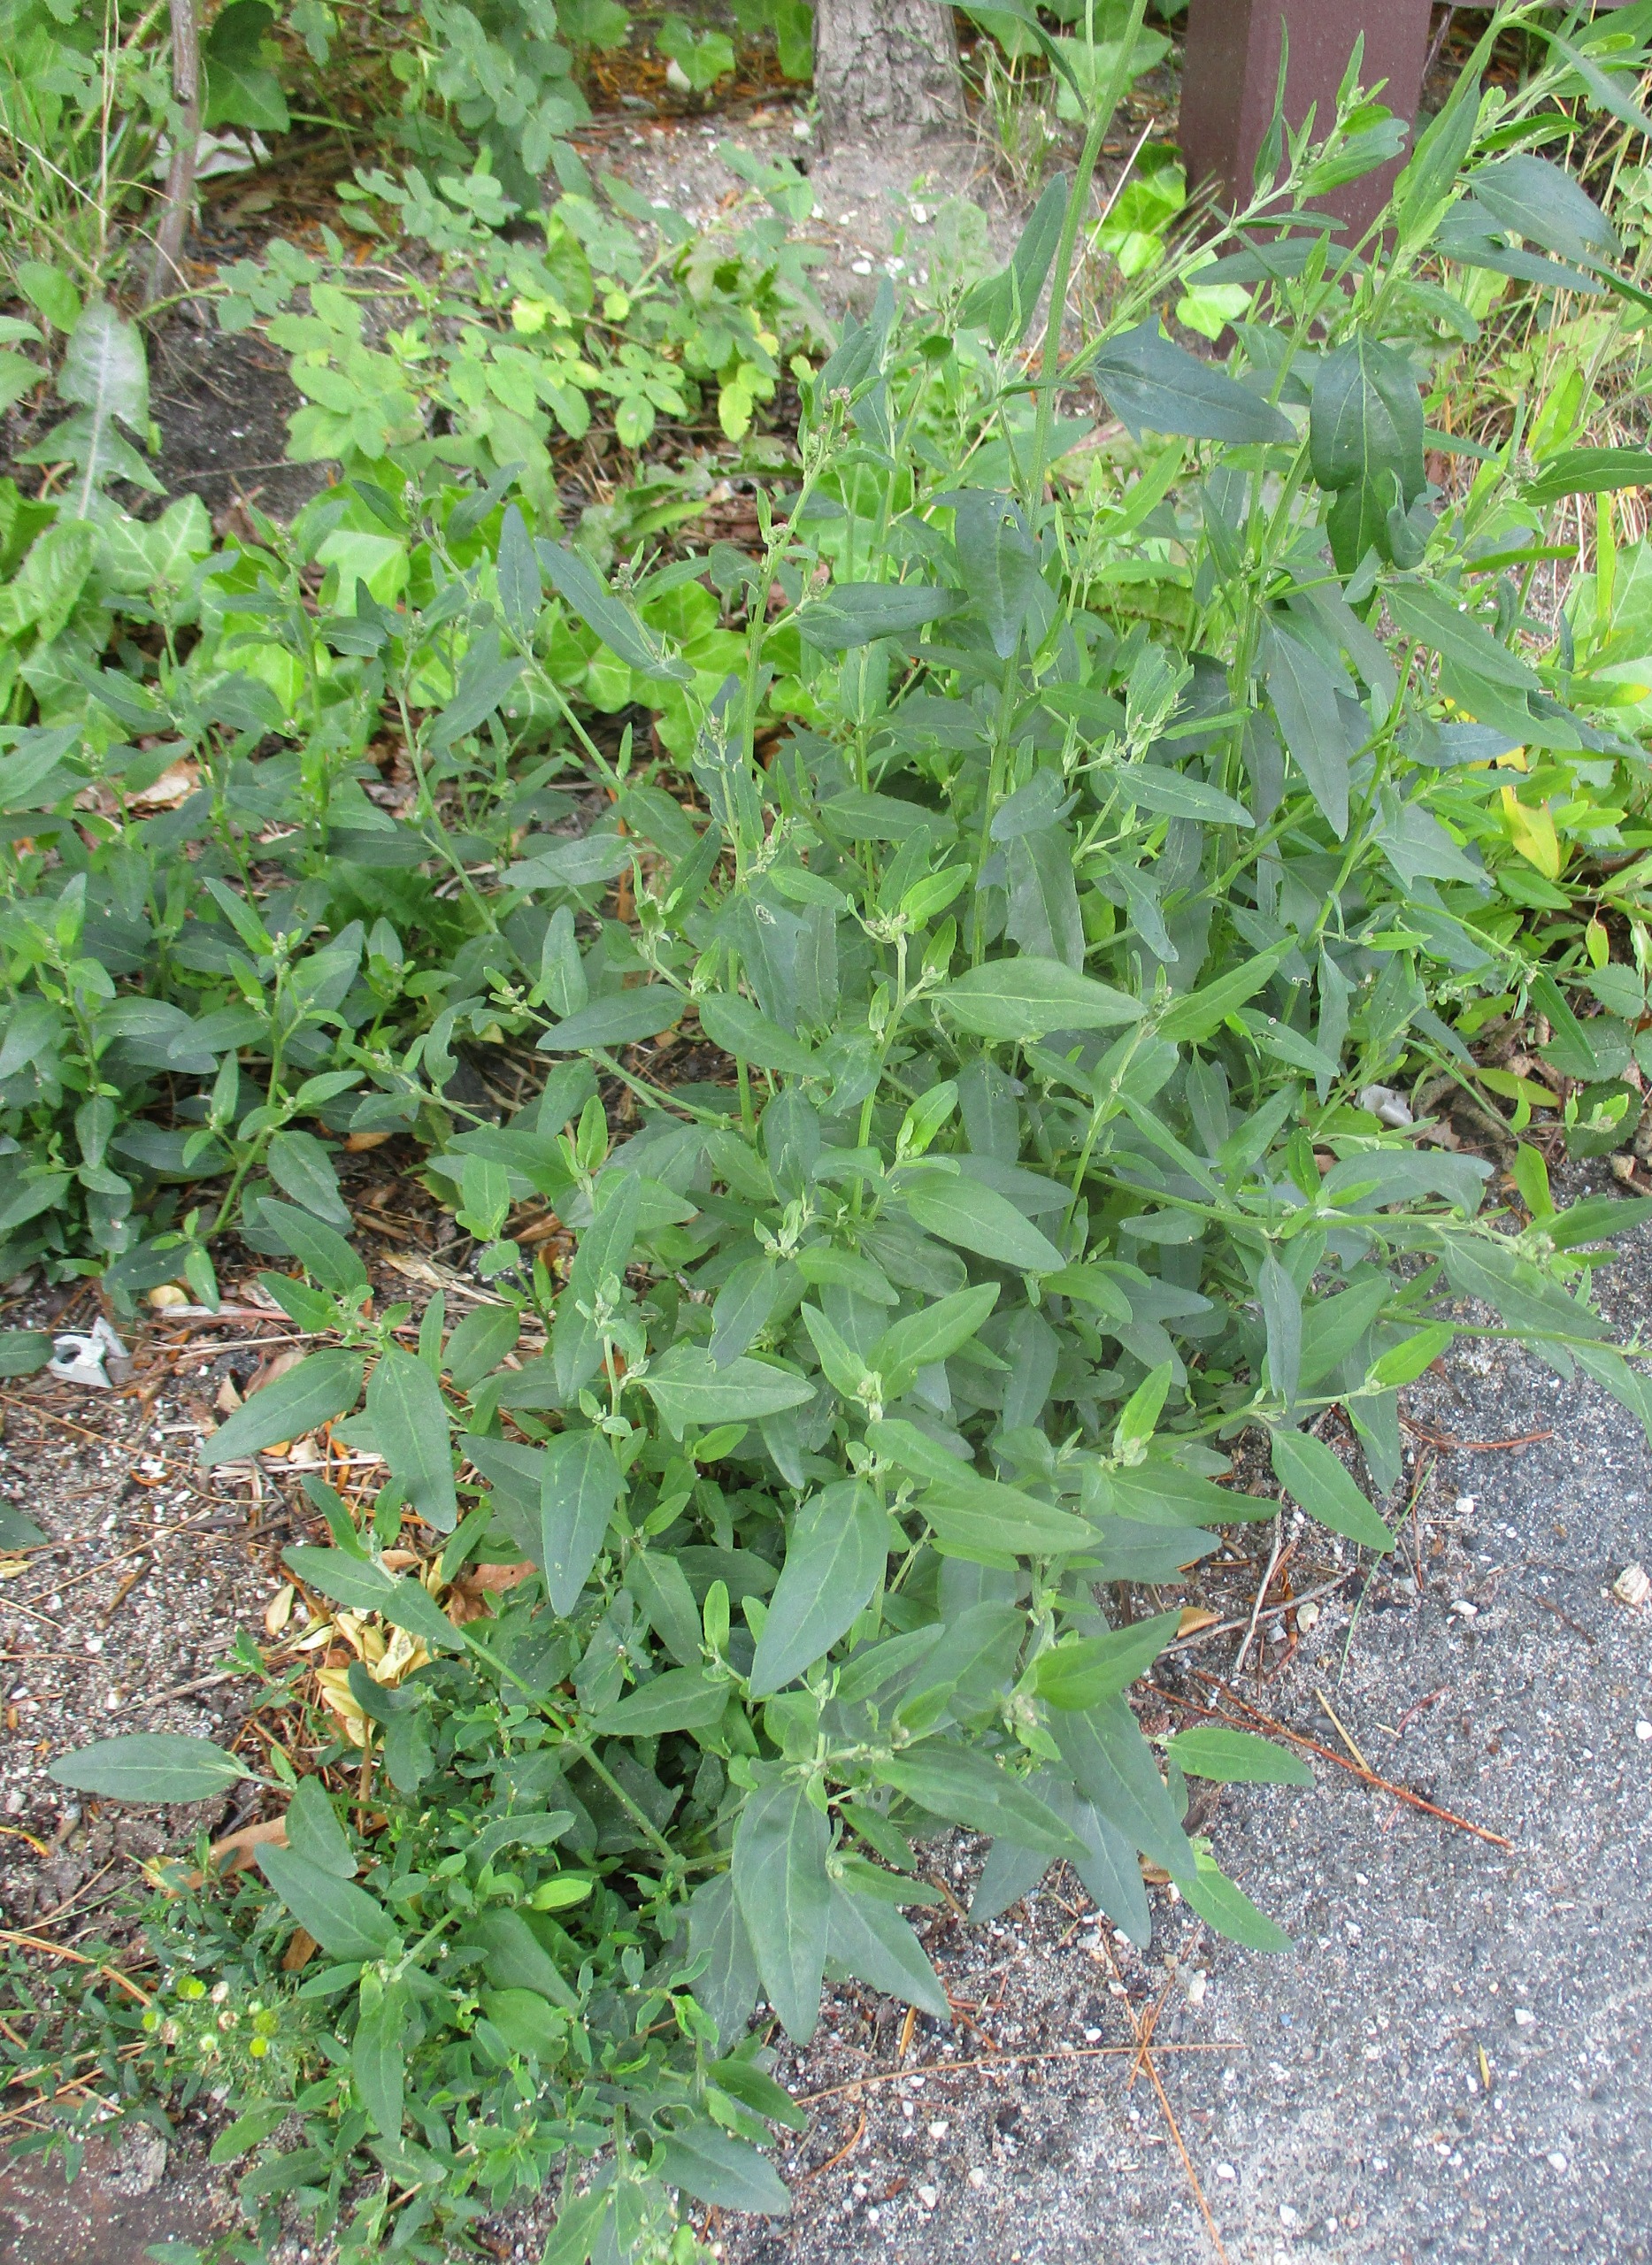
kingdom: Plantae
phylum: Tracheophyta
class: Magnoliopsida
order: Caryophyllales
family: Amaranthaceae
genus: Atriplex
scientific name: Atriplex patula
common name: Svine-mælde
